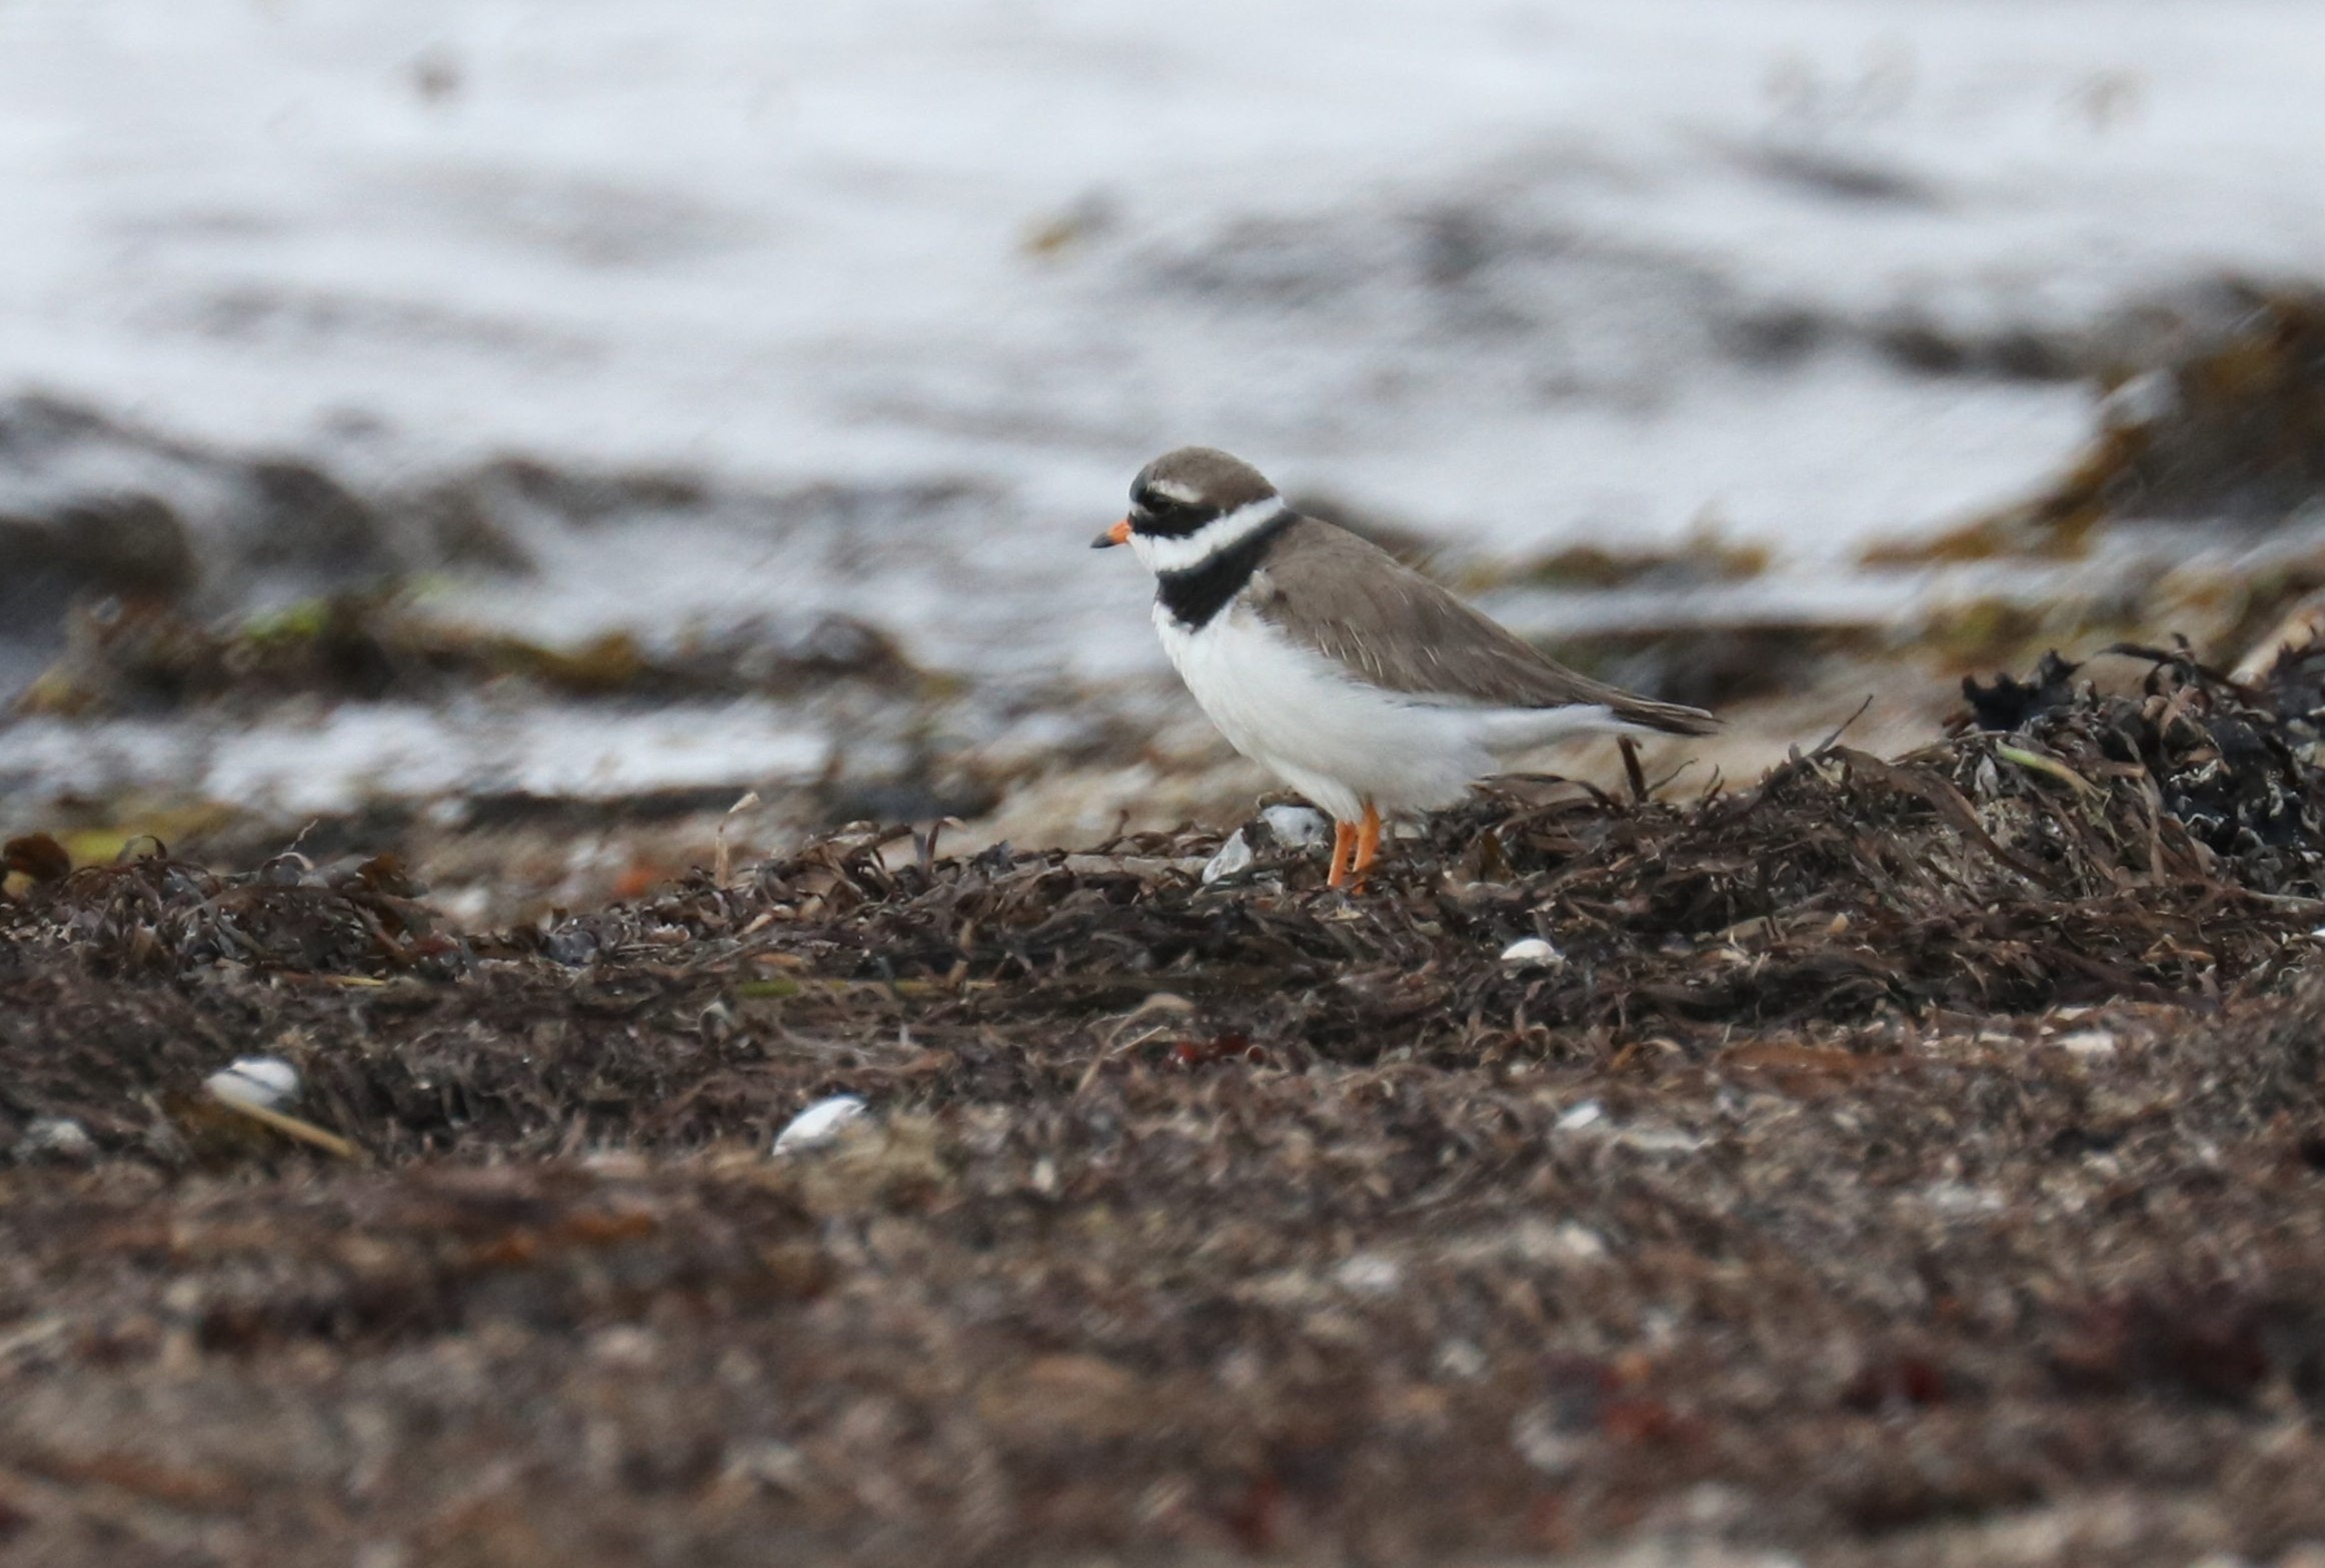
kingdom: Animalia
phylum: Chordata
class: Aves
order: Charadriiformes
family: Charadriidae
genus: Charadrius
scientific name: Charadrius hiaticula
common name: Stor præstekrave
